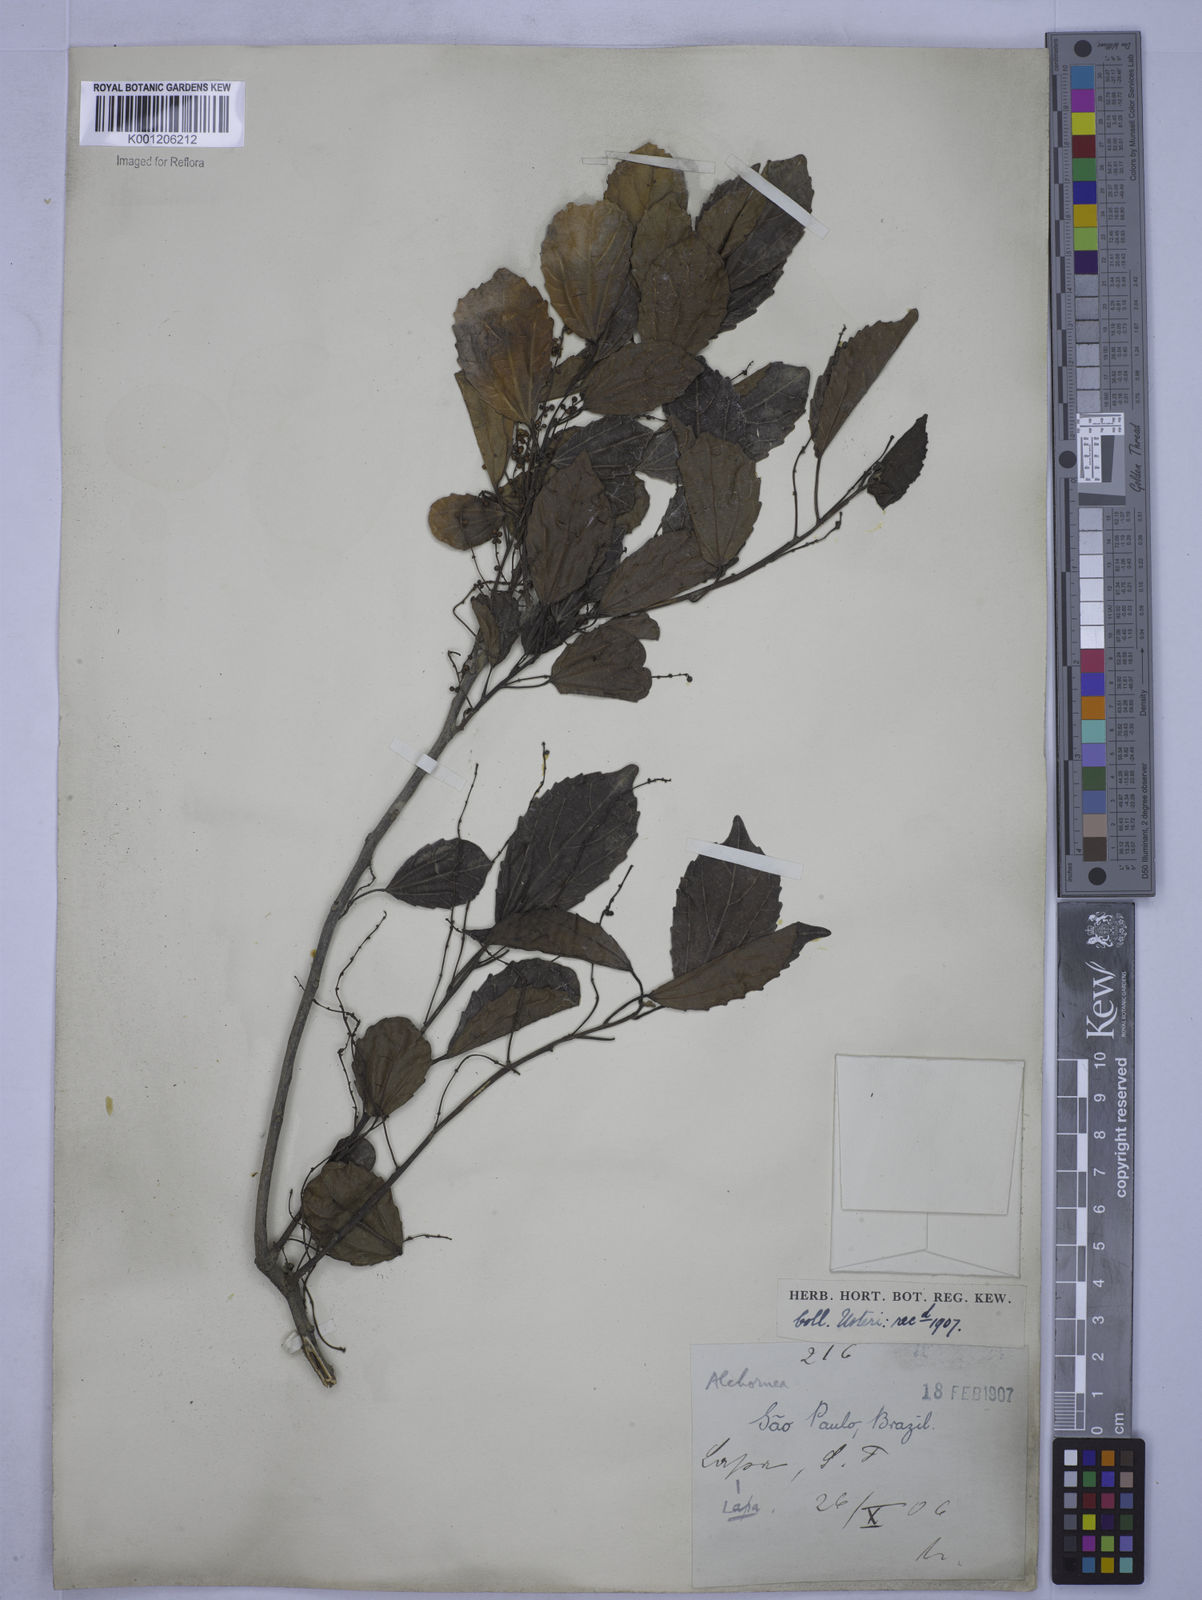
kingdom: Plantae
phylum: Tracheophyta
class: Magnoliopsida
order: Malpighiales
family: Euphorbiaceae
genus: Alchornea
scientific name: Alchornea
